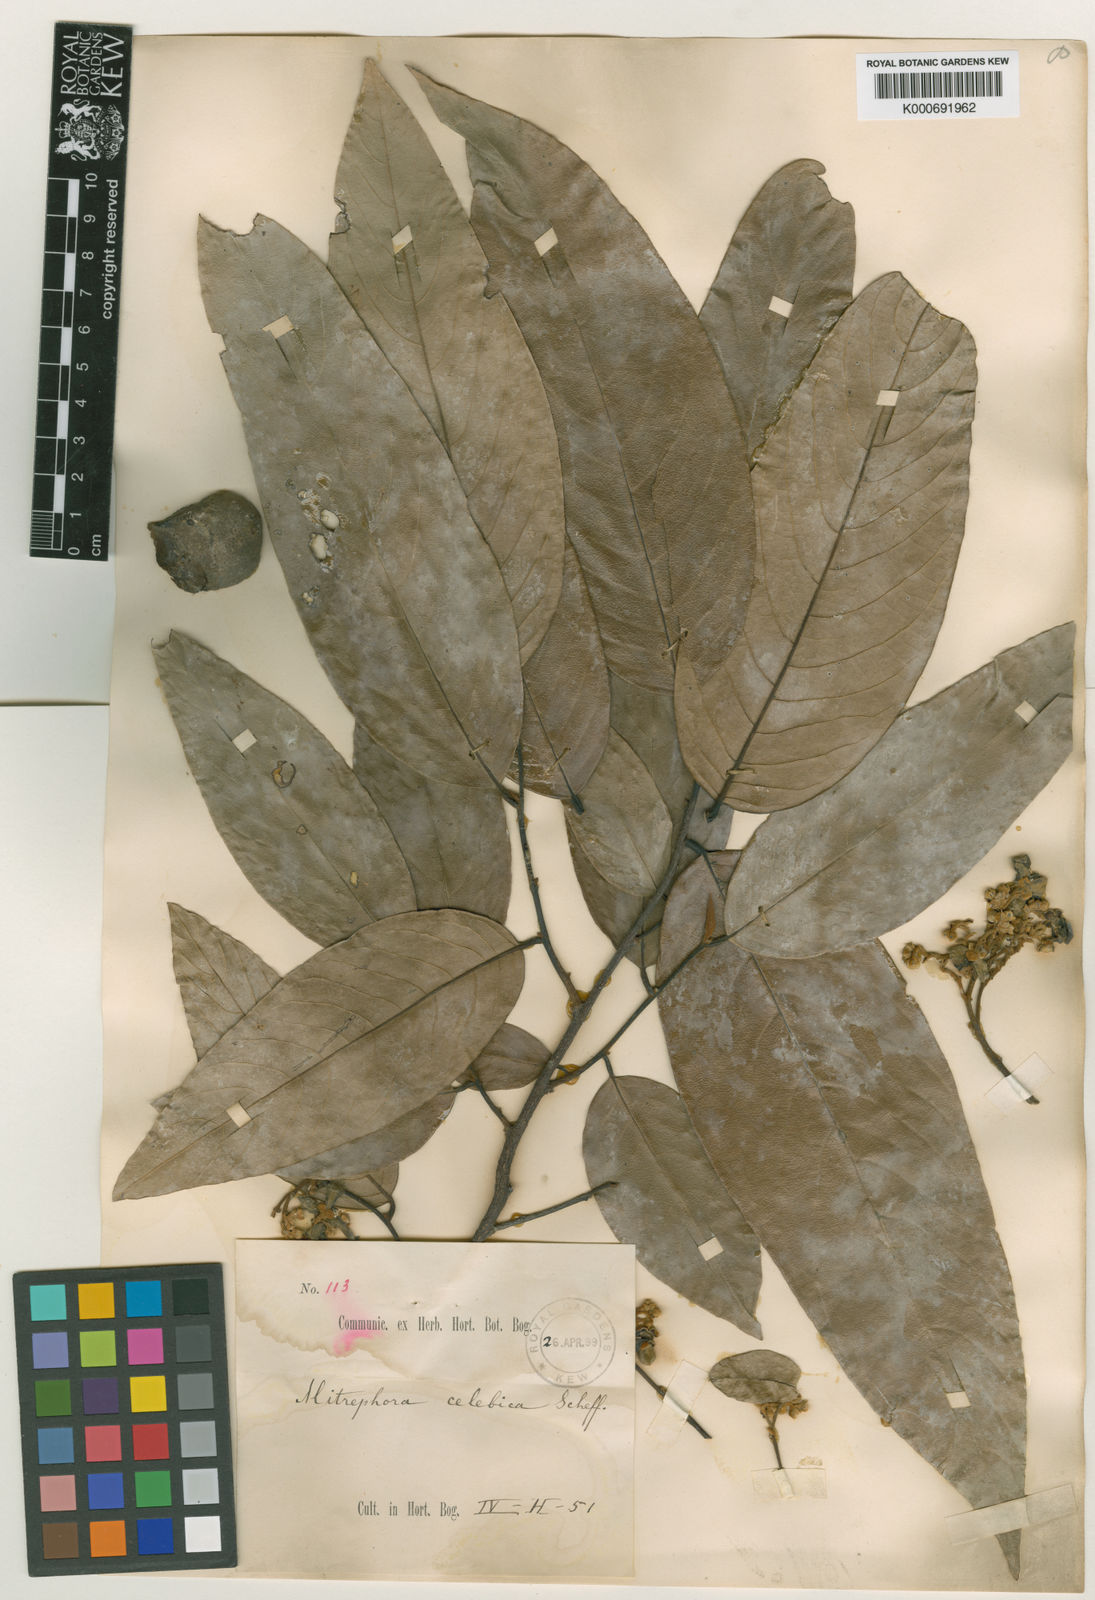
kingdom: Plantae
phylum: Tracheophyta
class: Magnoliopsida
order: Magnoliales
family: Annonaceae
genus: Mitrephora
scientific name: Mitrephora celebica
